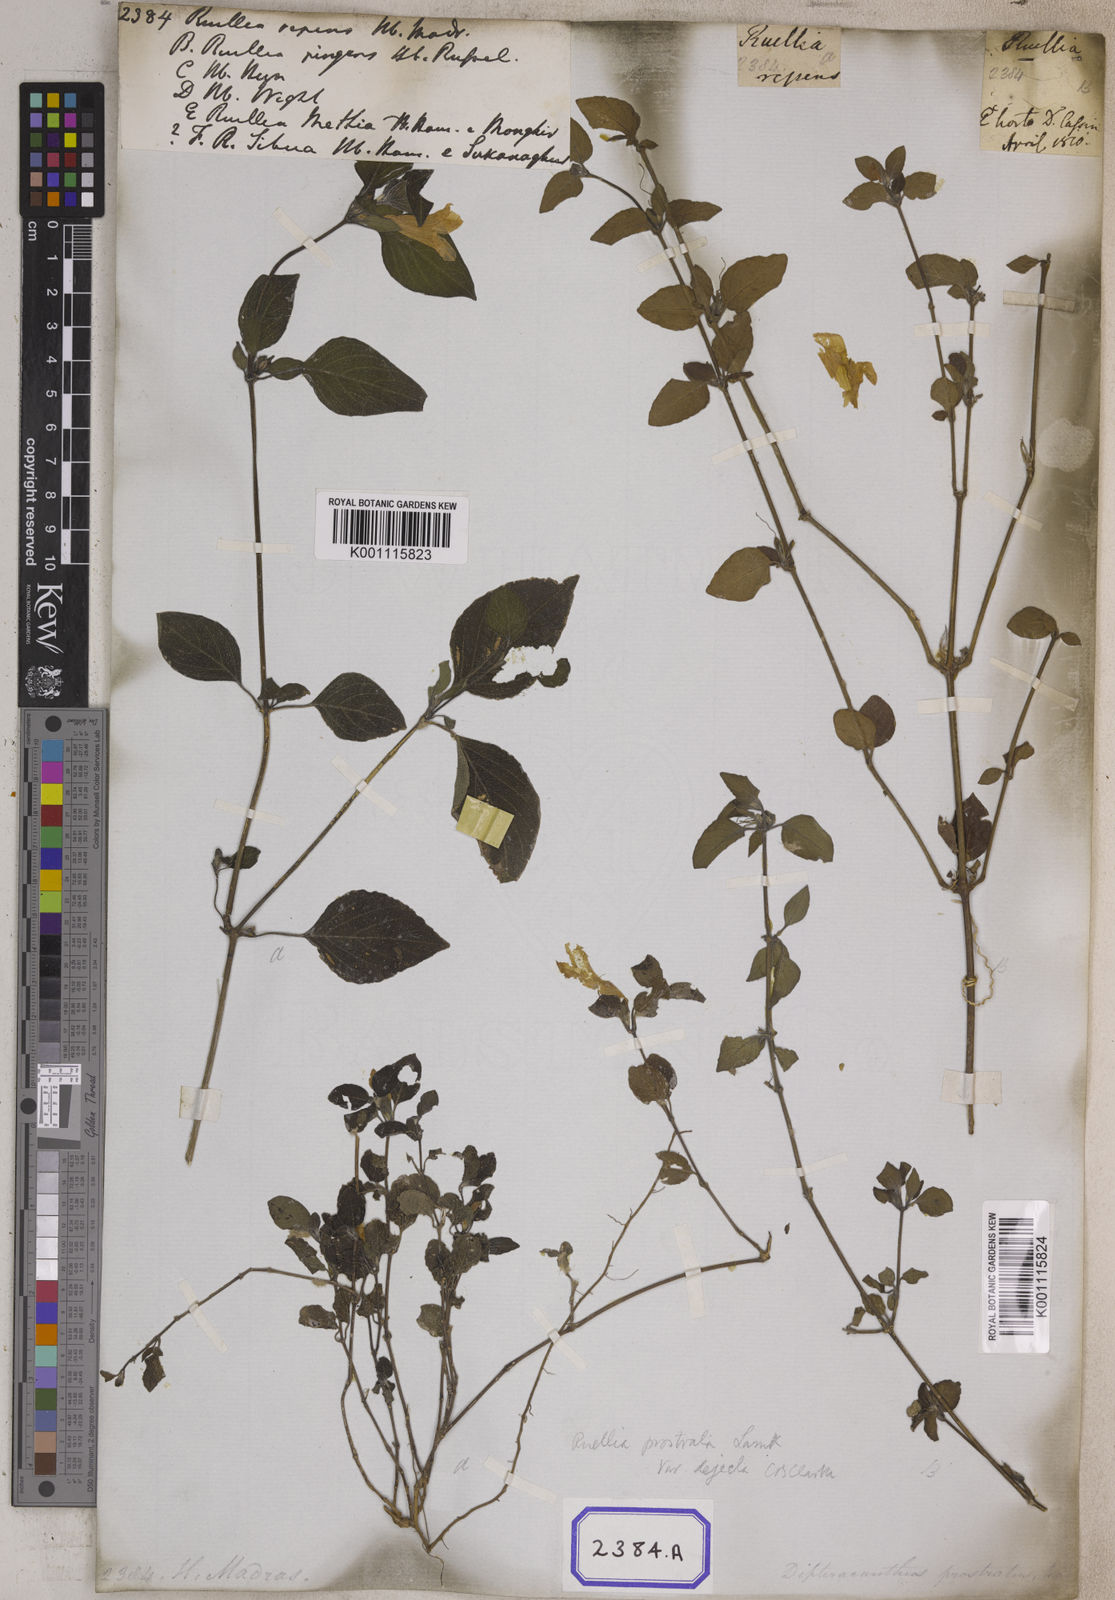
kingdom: Plantae
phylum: Tracheophyta
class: Magnoliopsida
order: Lamiales
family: Acanthaceae
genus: Ruellia
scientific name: Ruellia prostrata
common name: Prostrate wild petunia
